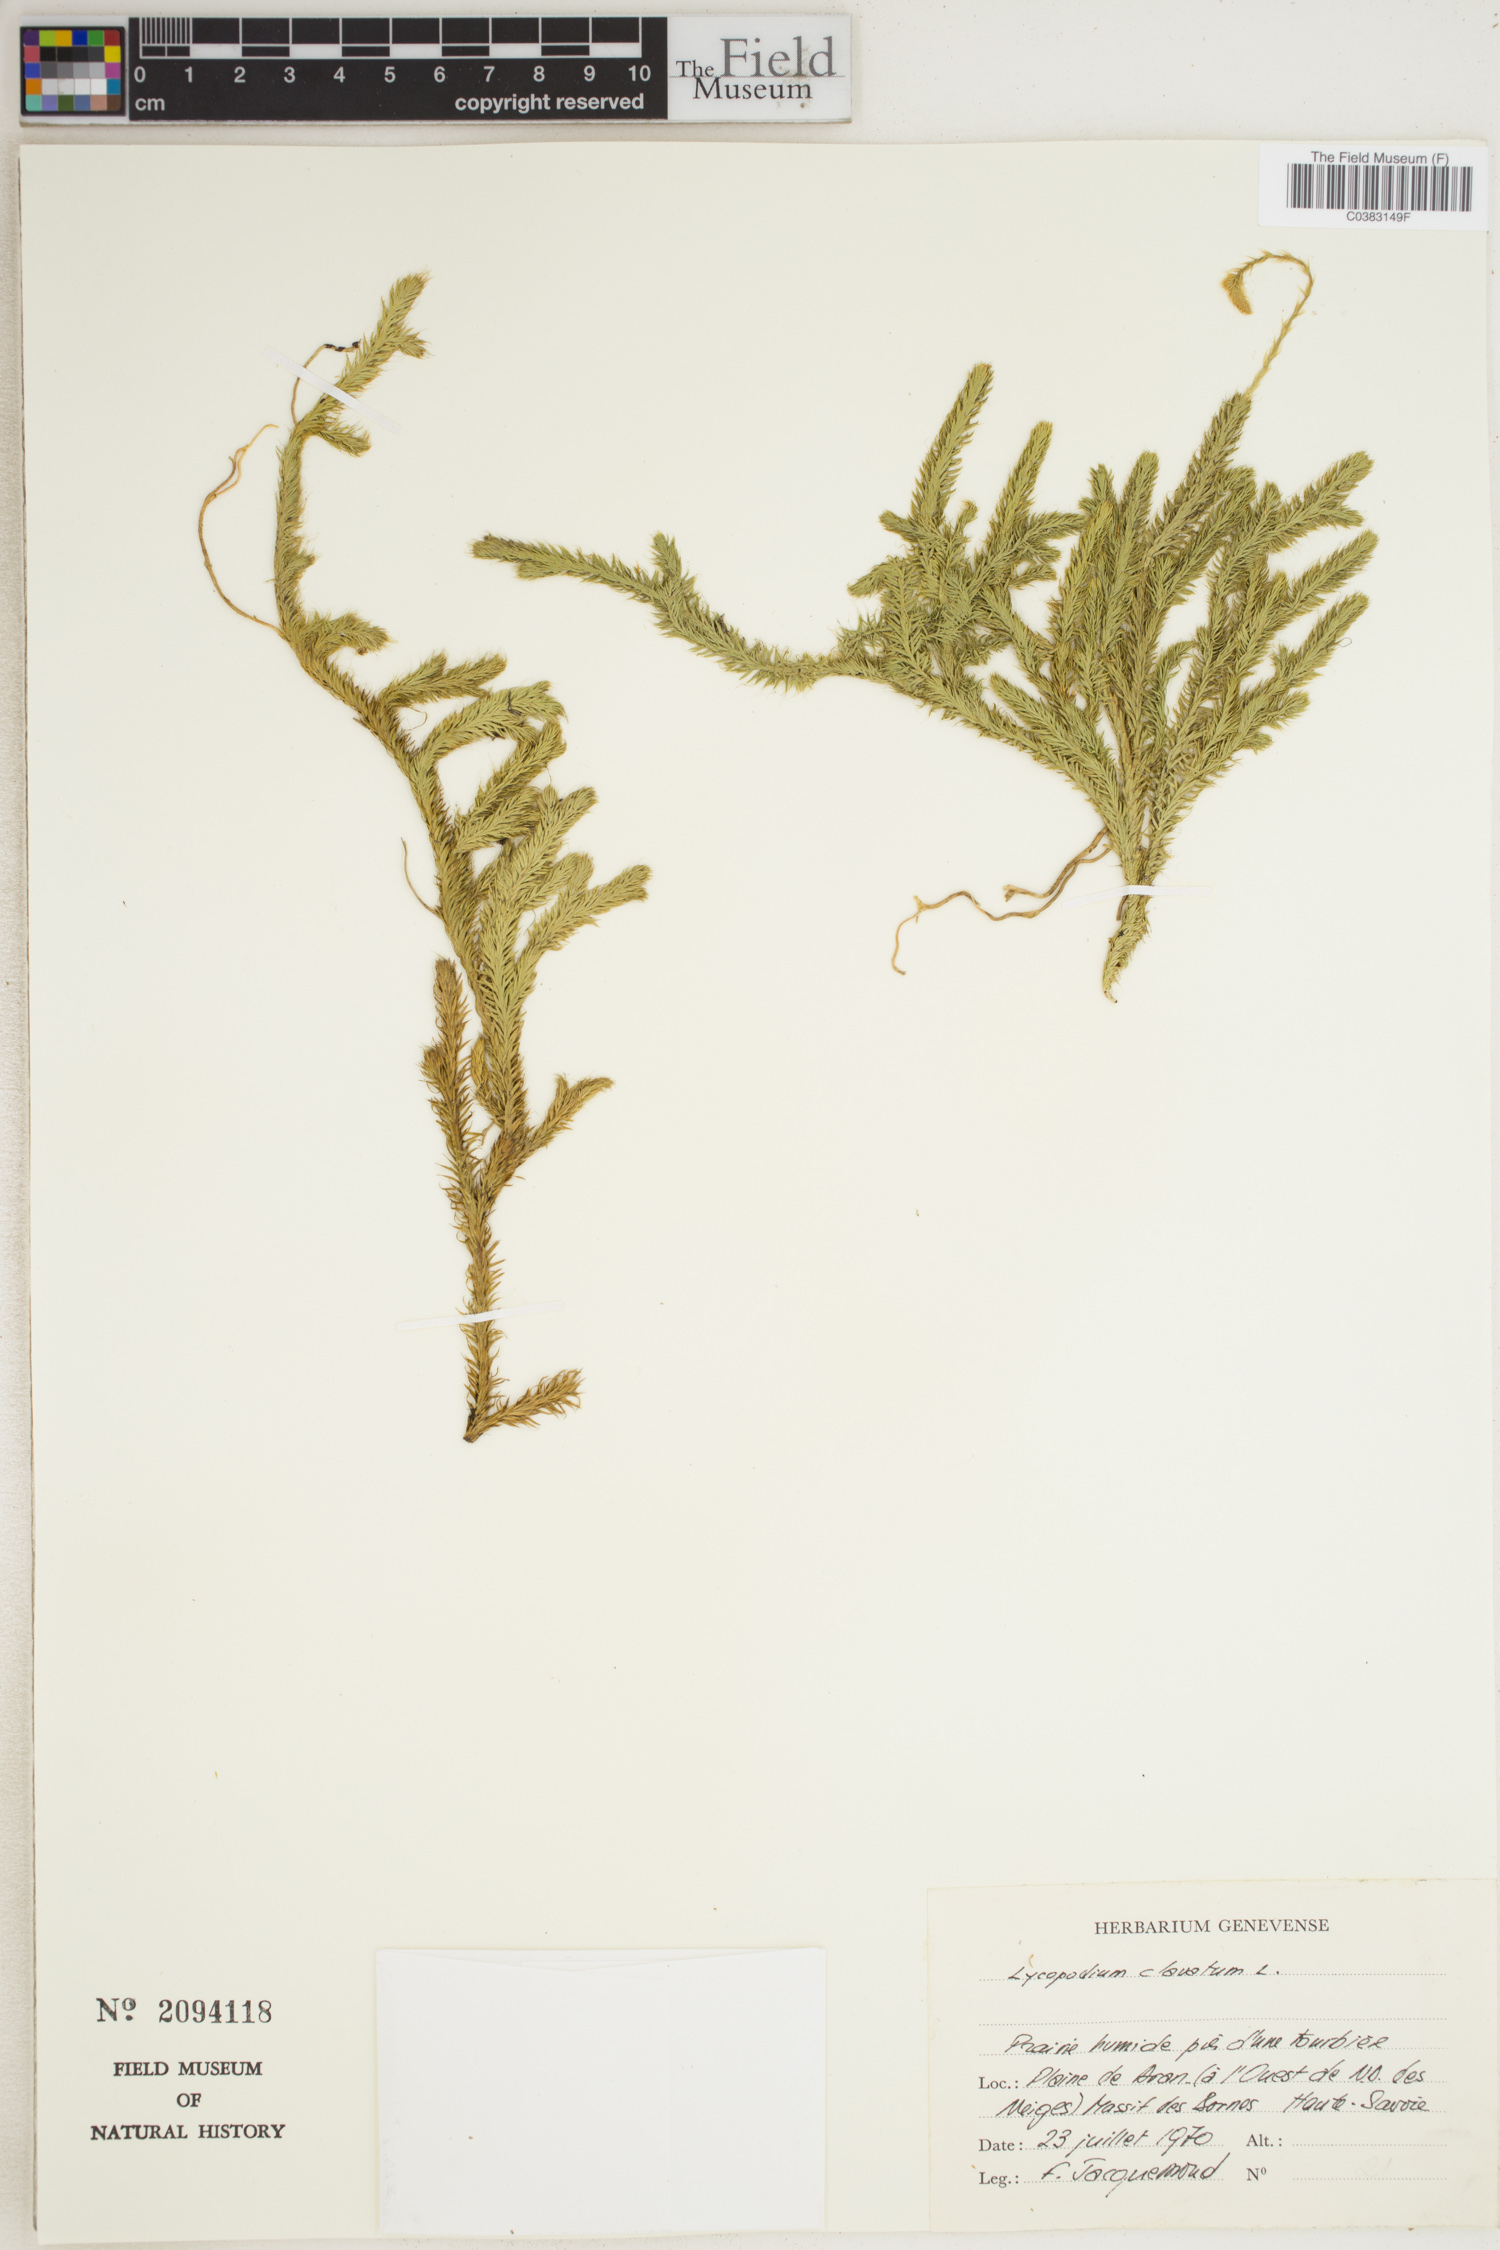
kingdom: Plantae
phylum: Tracheophyta
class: Lycopodiopsida
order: Lycopodiales
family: Lycopodiaceae
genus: Lycopodium
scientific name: Lycopodium clavatum
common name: Stag's-horn clubmoss
